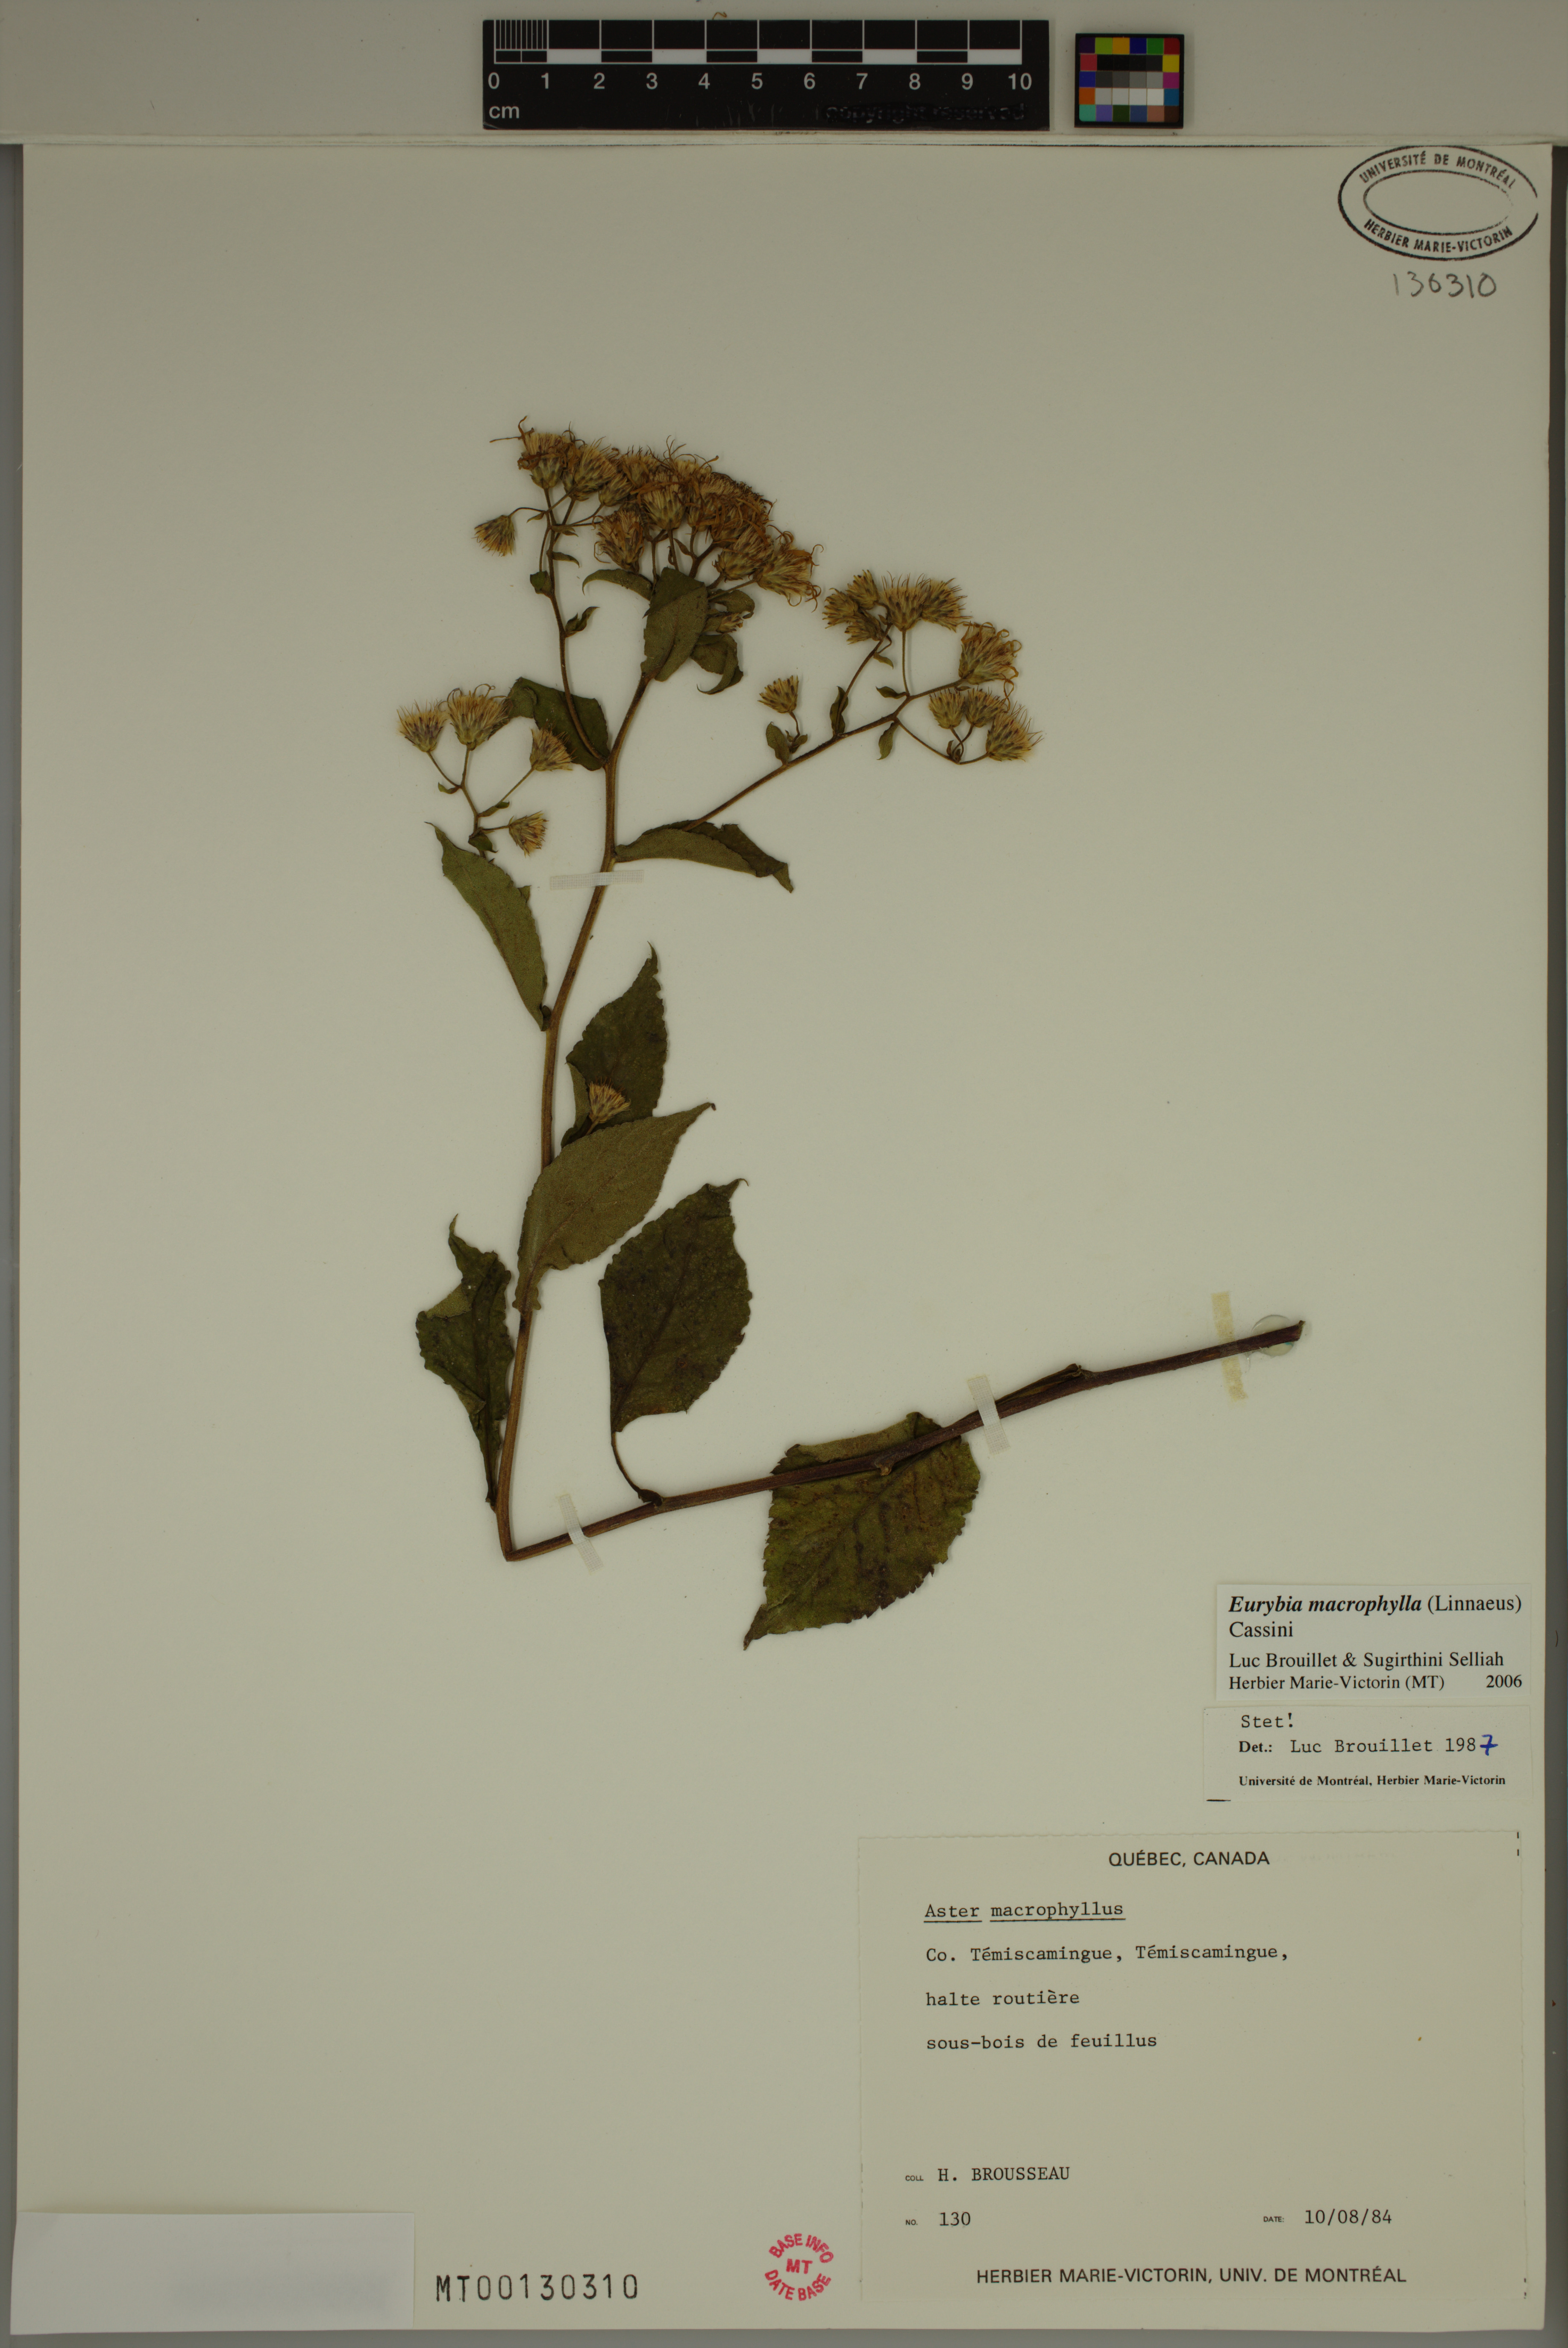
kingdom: Plantae
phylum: Tracheophyta
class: Magnoliopsida
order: Asterales
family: Asteraceae
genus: Eurybia
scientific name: Eurybia macrophylla
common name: Big-leaved aster
